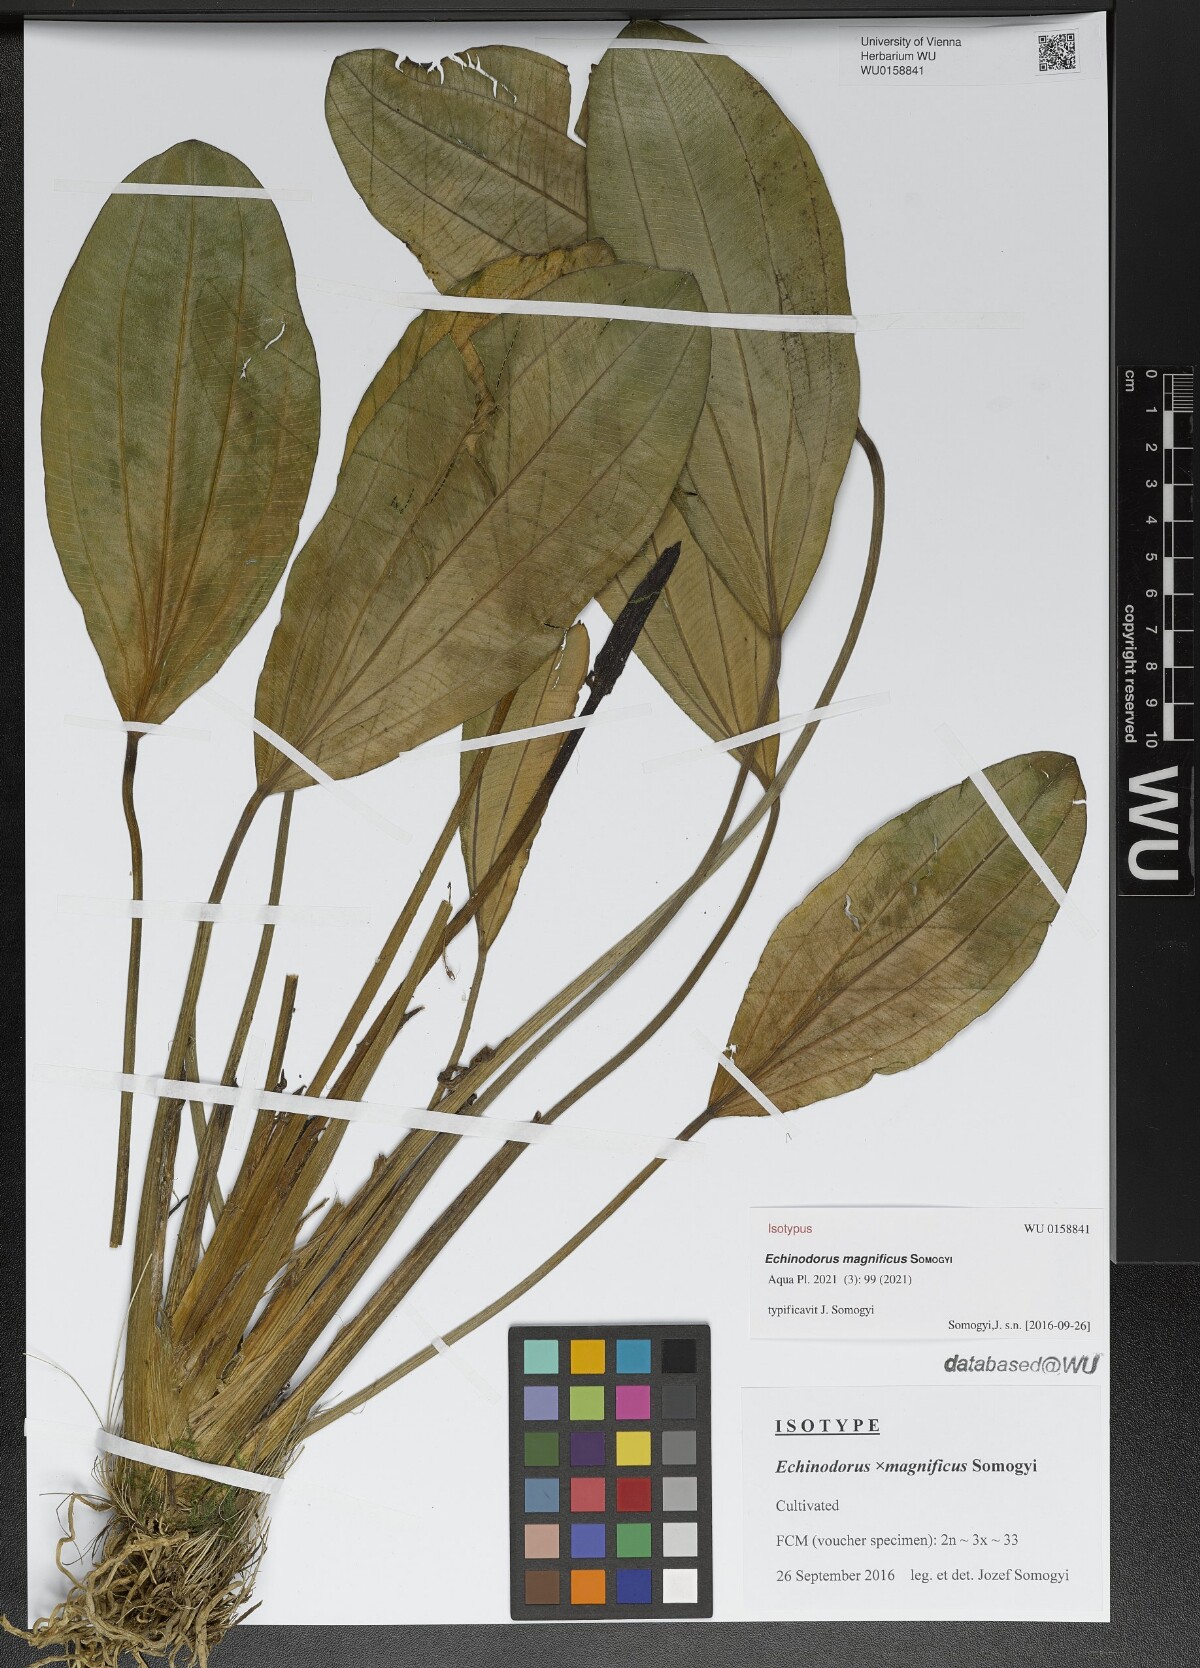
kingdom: Plantae
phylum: Tracheophyta
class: Liliopsida
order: Alismatales
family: Alismataceae
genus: Echinodorus
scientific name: Echinodorus
